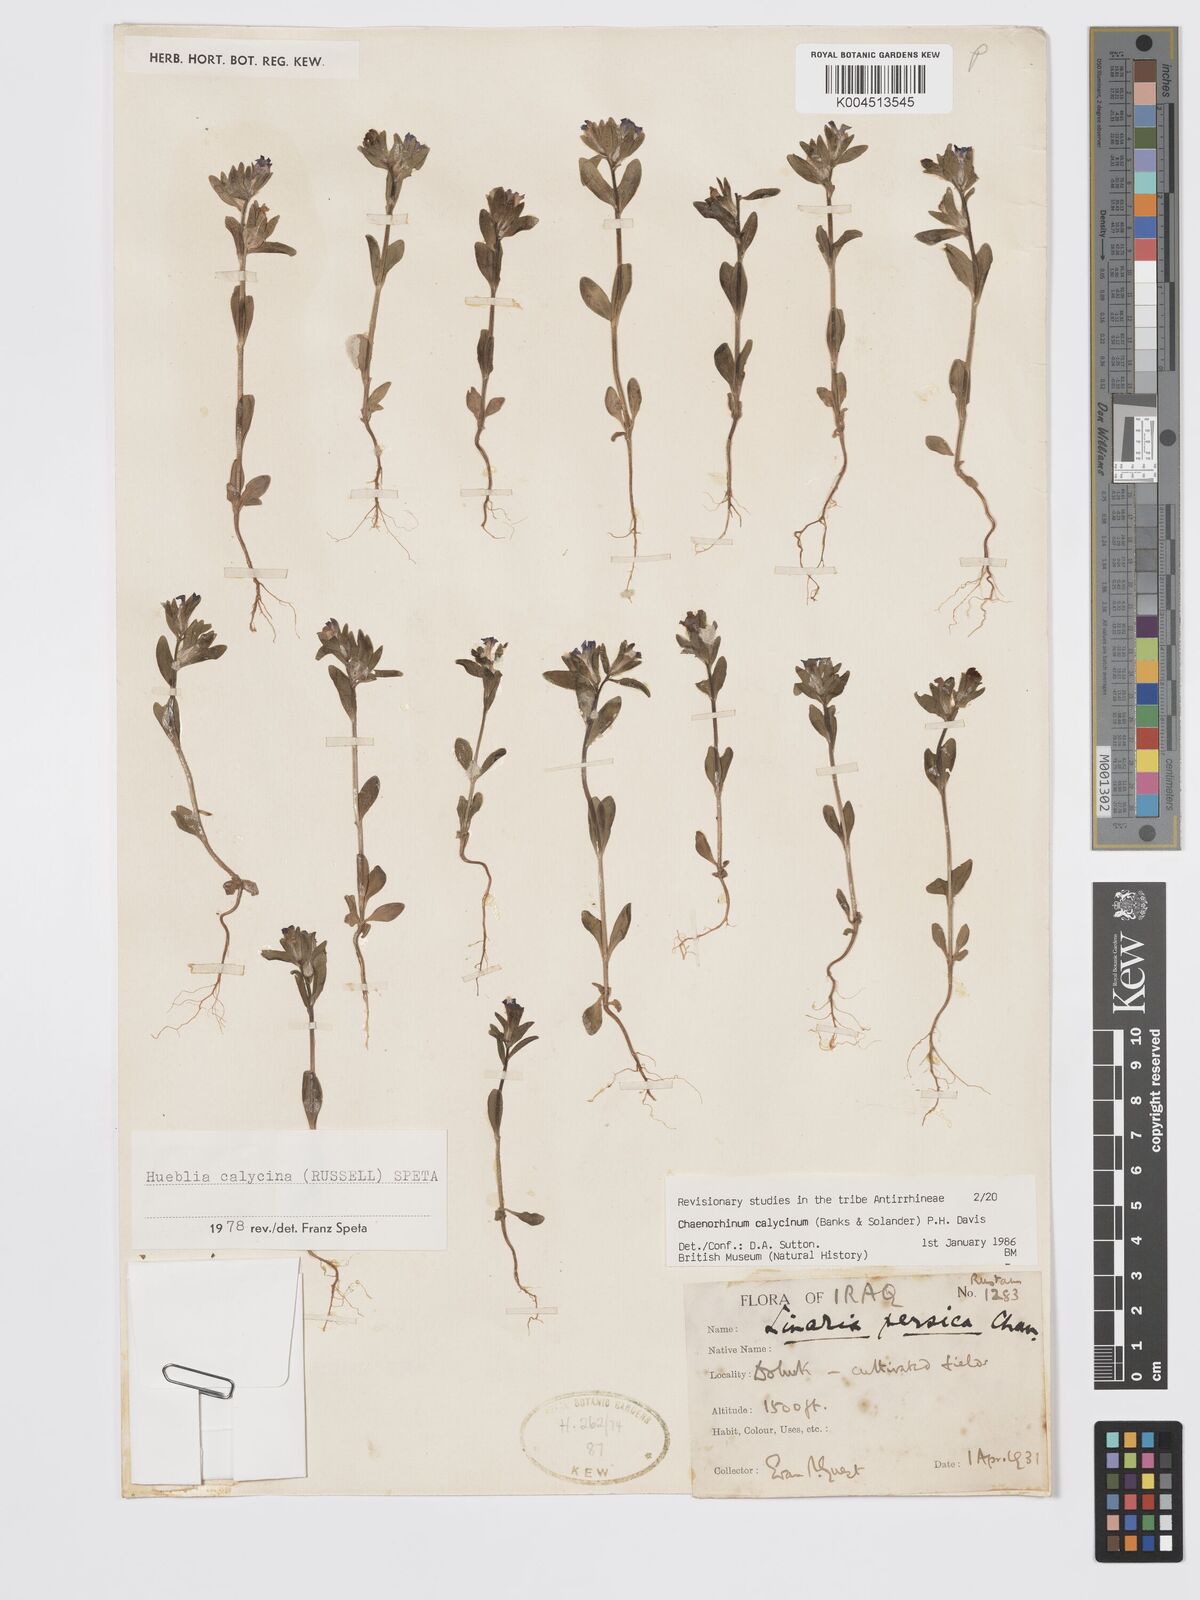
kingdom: Plantae
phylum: Tracheophyta
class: Magnoliopsida
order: Lamiales
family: Plantaginaceae
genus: Chaenorhinum
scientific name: Chaenorhinum calycinum
